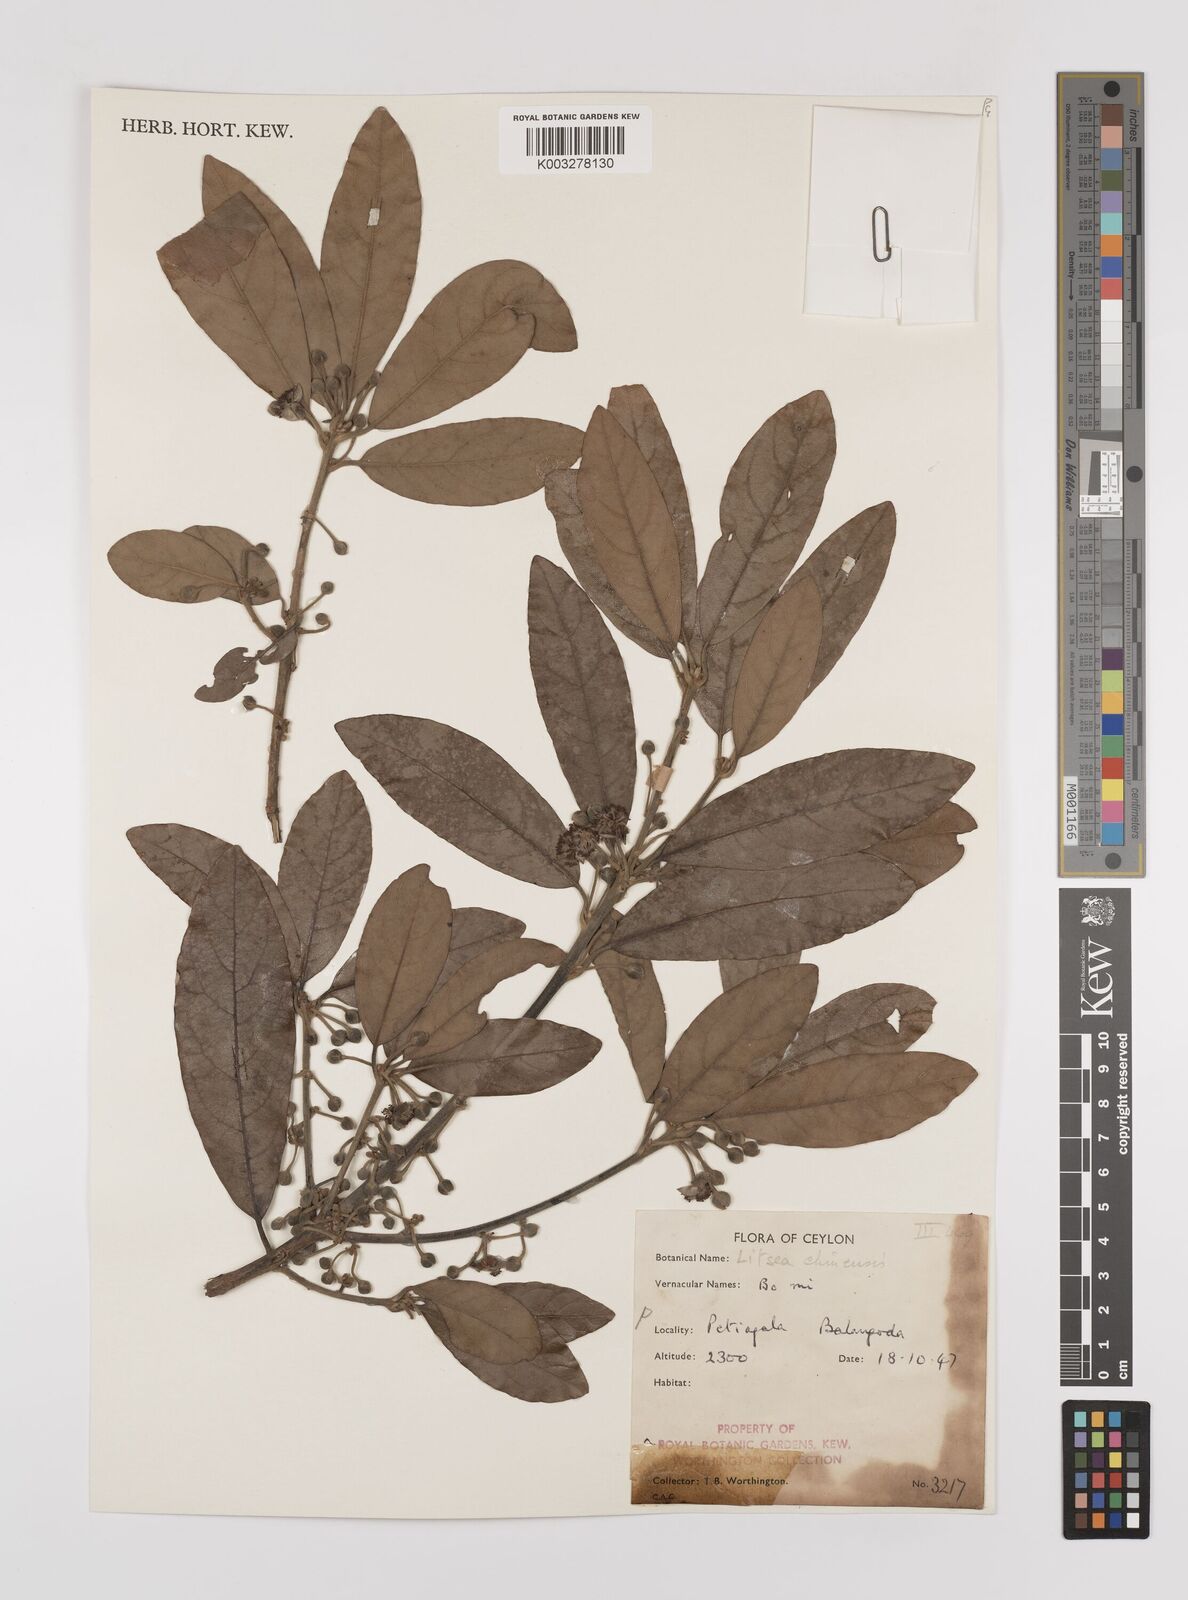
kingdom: Plantae
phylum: Tracheophyta
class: Magnoliopsida
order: Laurales
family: Lauraceae
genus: Litsea
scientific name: Litsea
